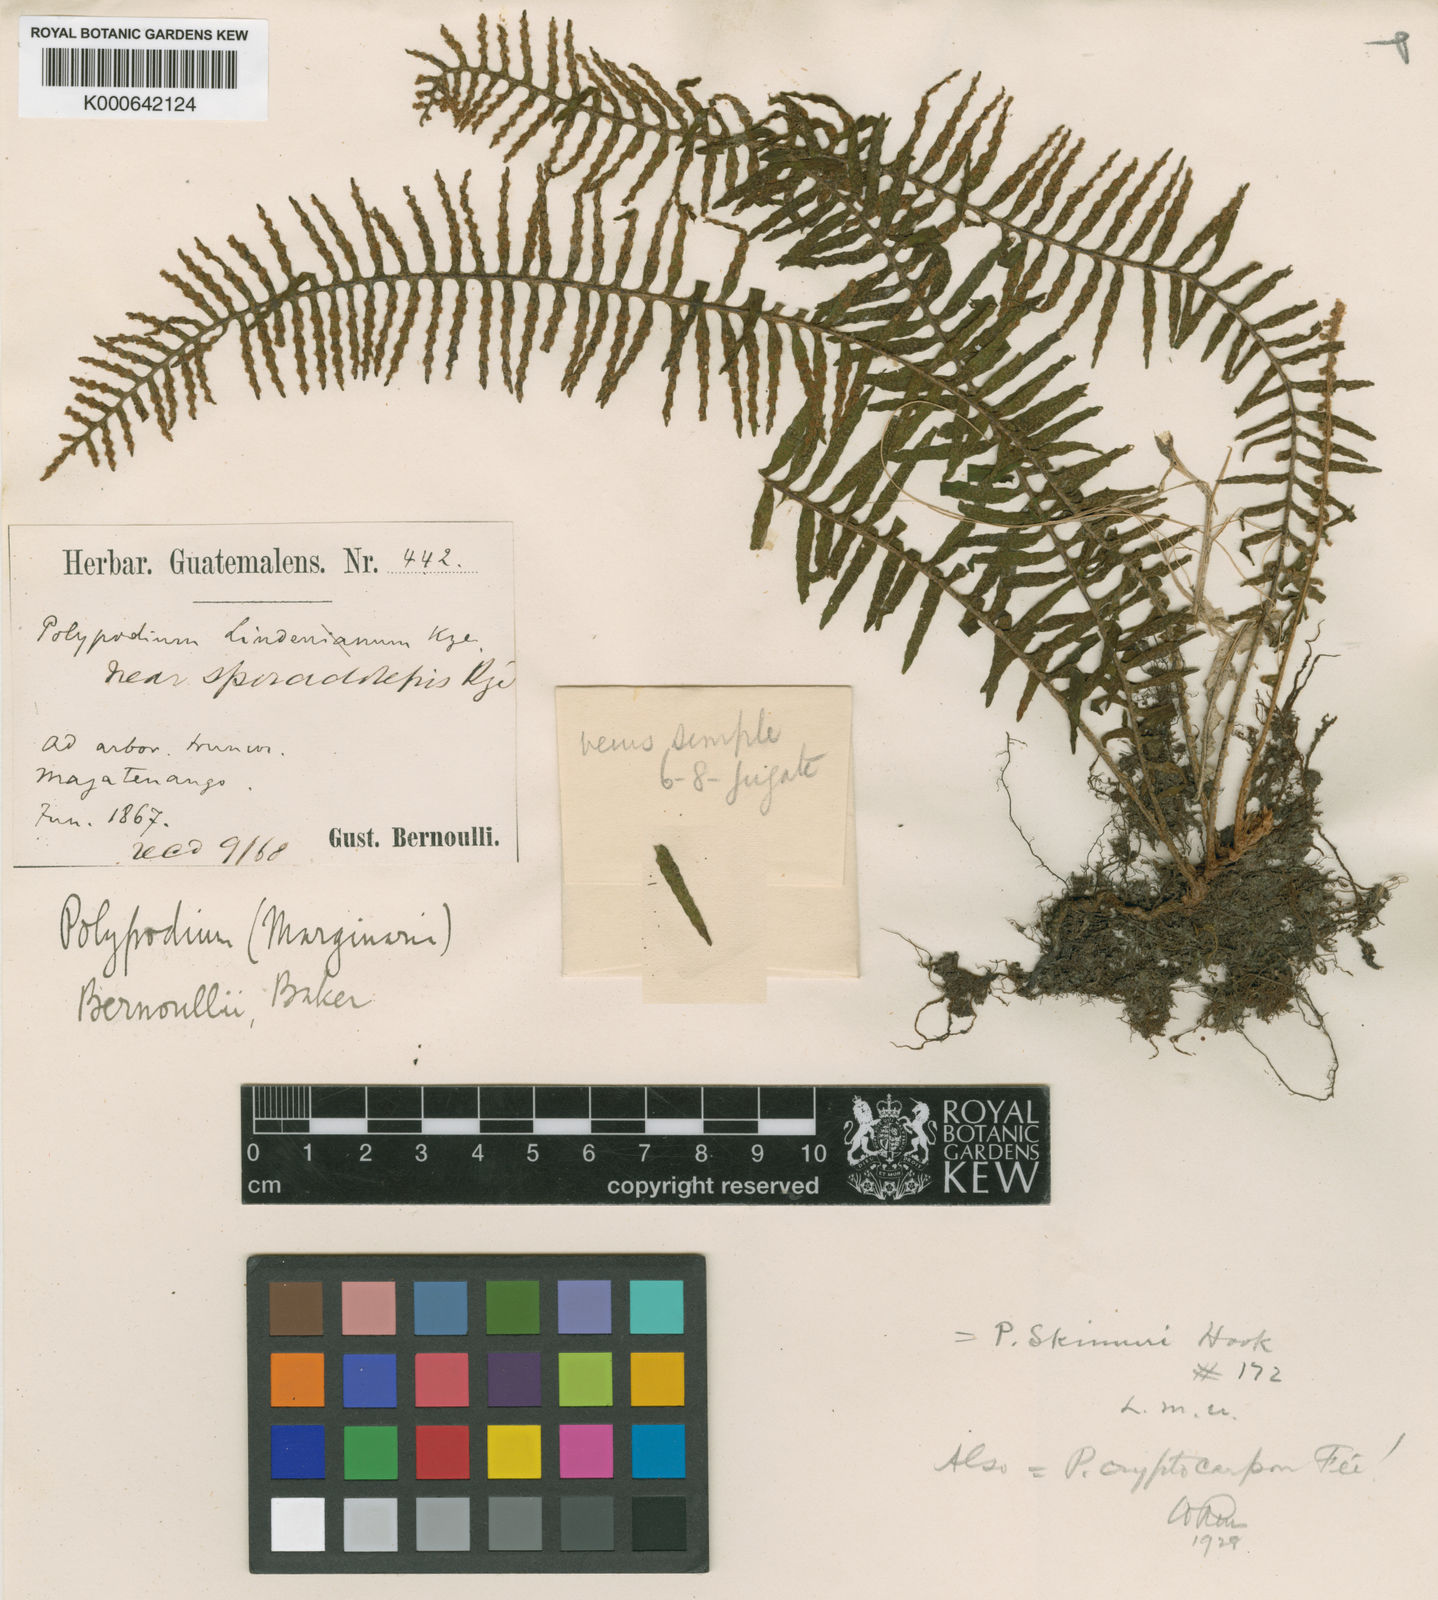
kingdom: Plantae
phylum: Tracheophyta
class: Polypodiopsida
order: Polypodiales
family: Polypodiaceae
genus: Polypodium
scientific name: Polypodium
